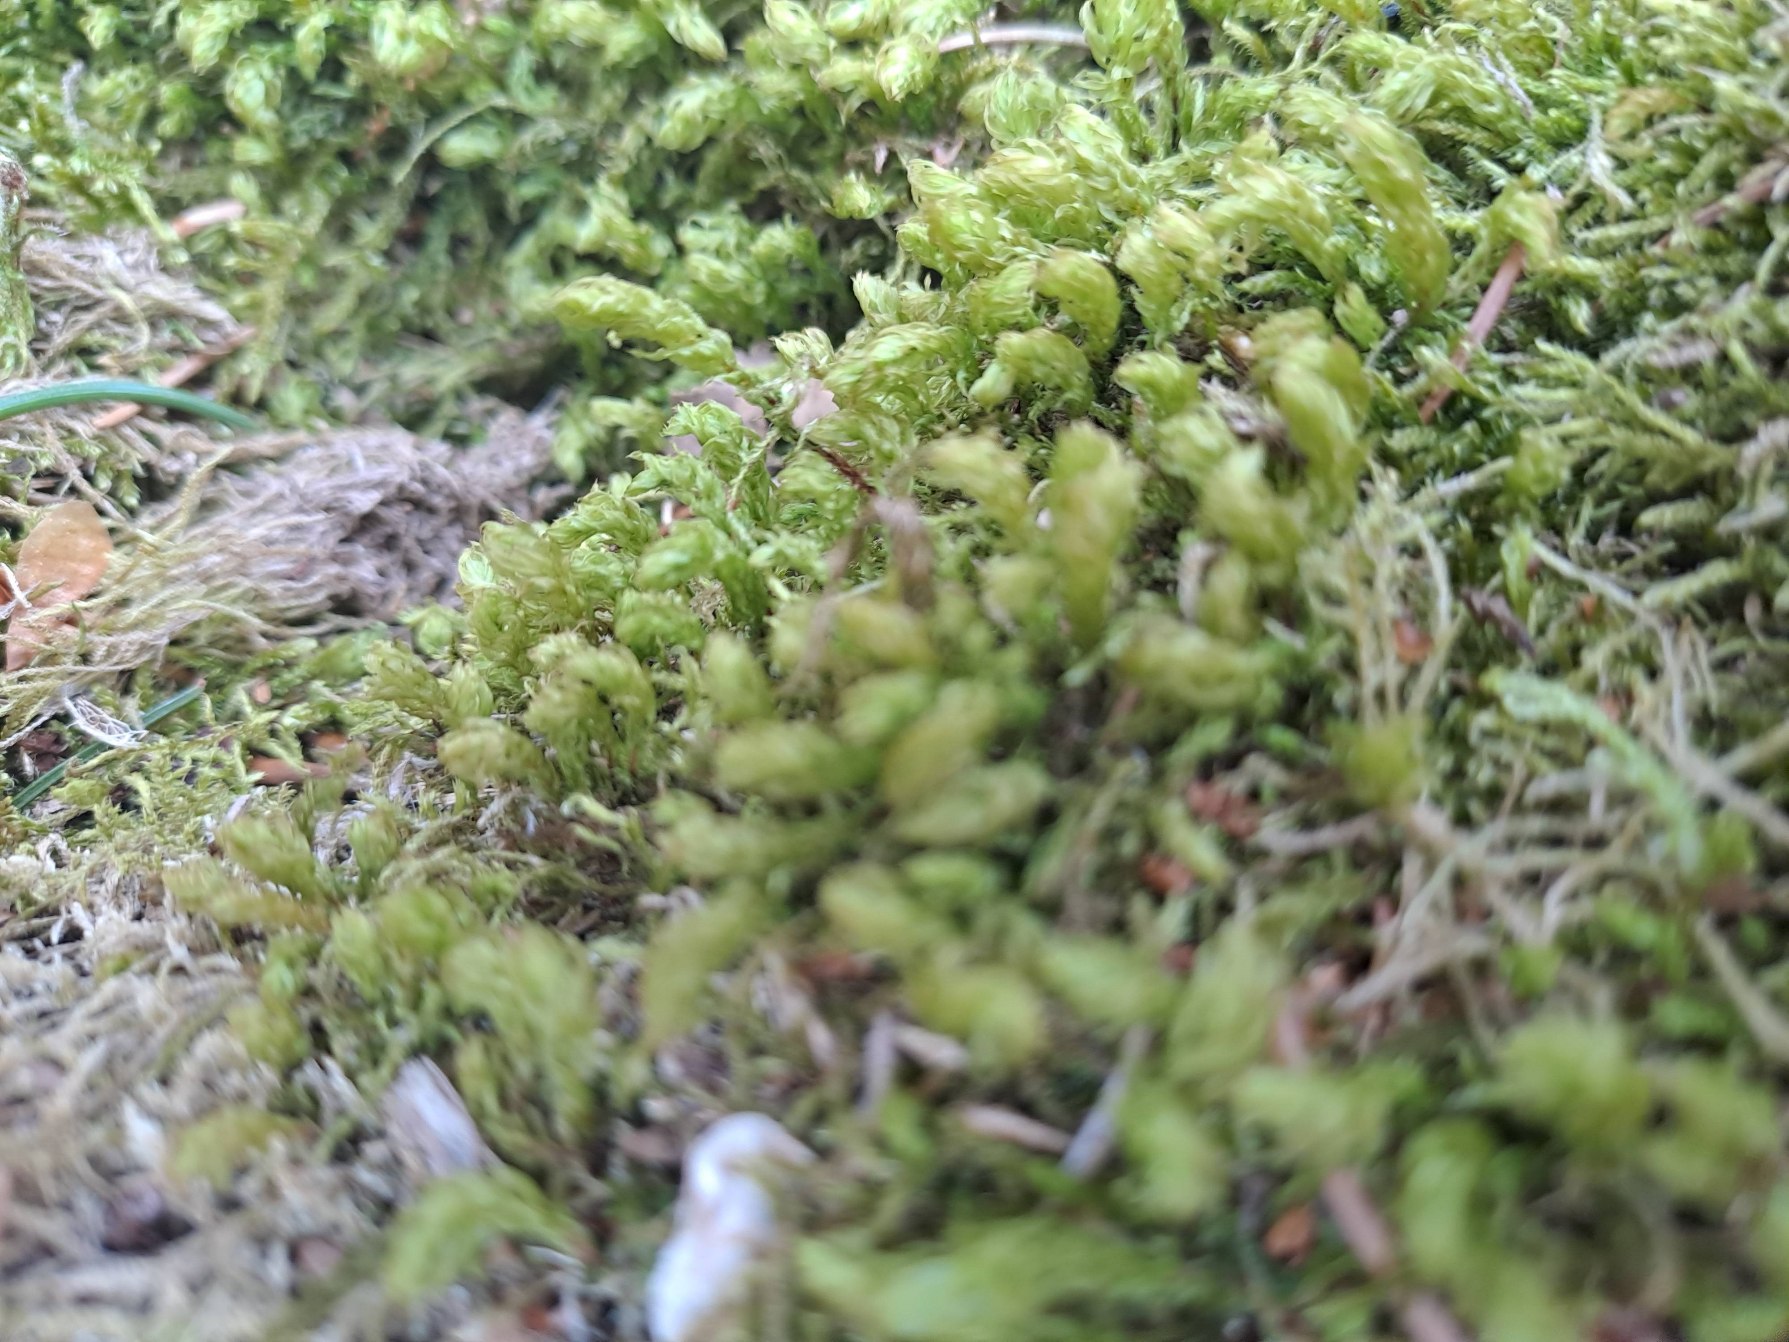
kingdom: Plantae
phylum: Bryophyta
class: Bryopsida
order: Bryales
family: Mniaceae
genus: Mnium
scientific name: Mnium hornum
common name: Brunfiltet stjernemos
